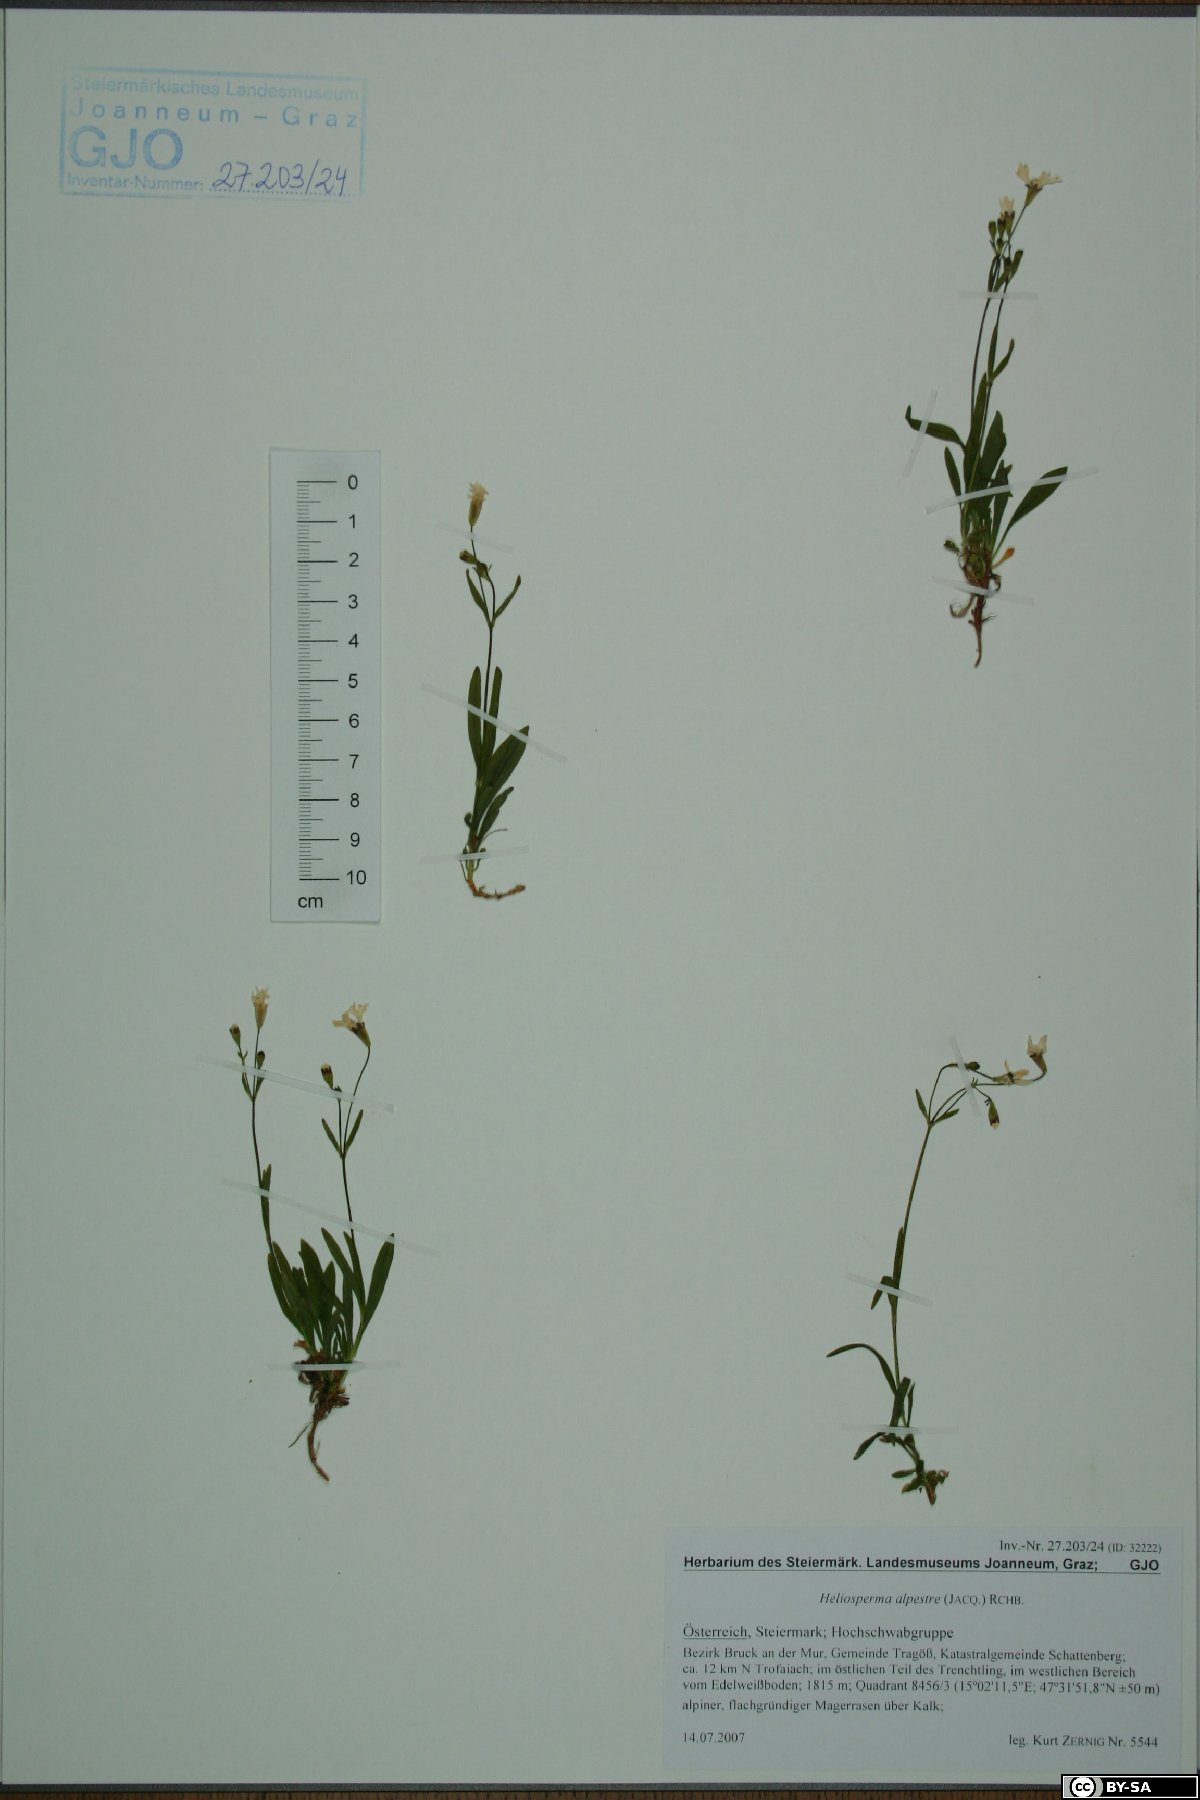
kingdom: Plantae
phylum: Tracheophyta
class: Magnoliopsida
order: Caryophyllales
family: Caryophyllaceae
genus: Heliosperma
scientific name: Heliosperma alpestre
